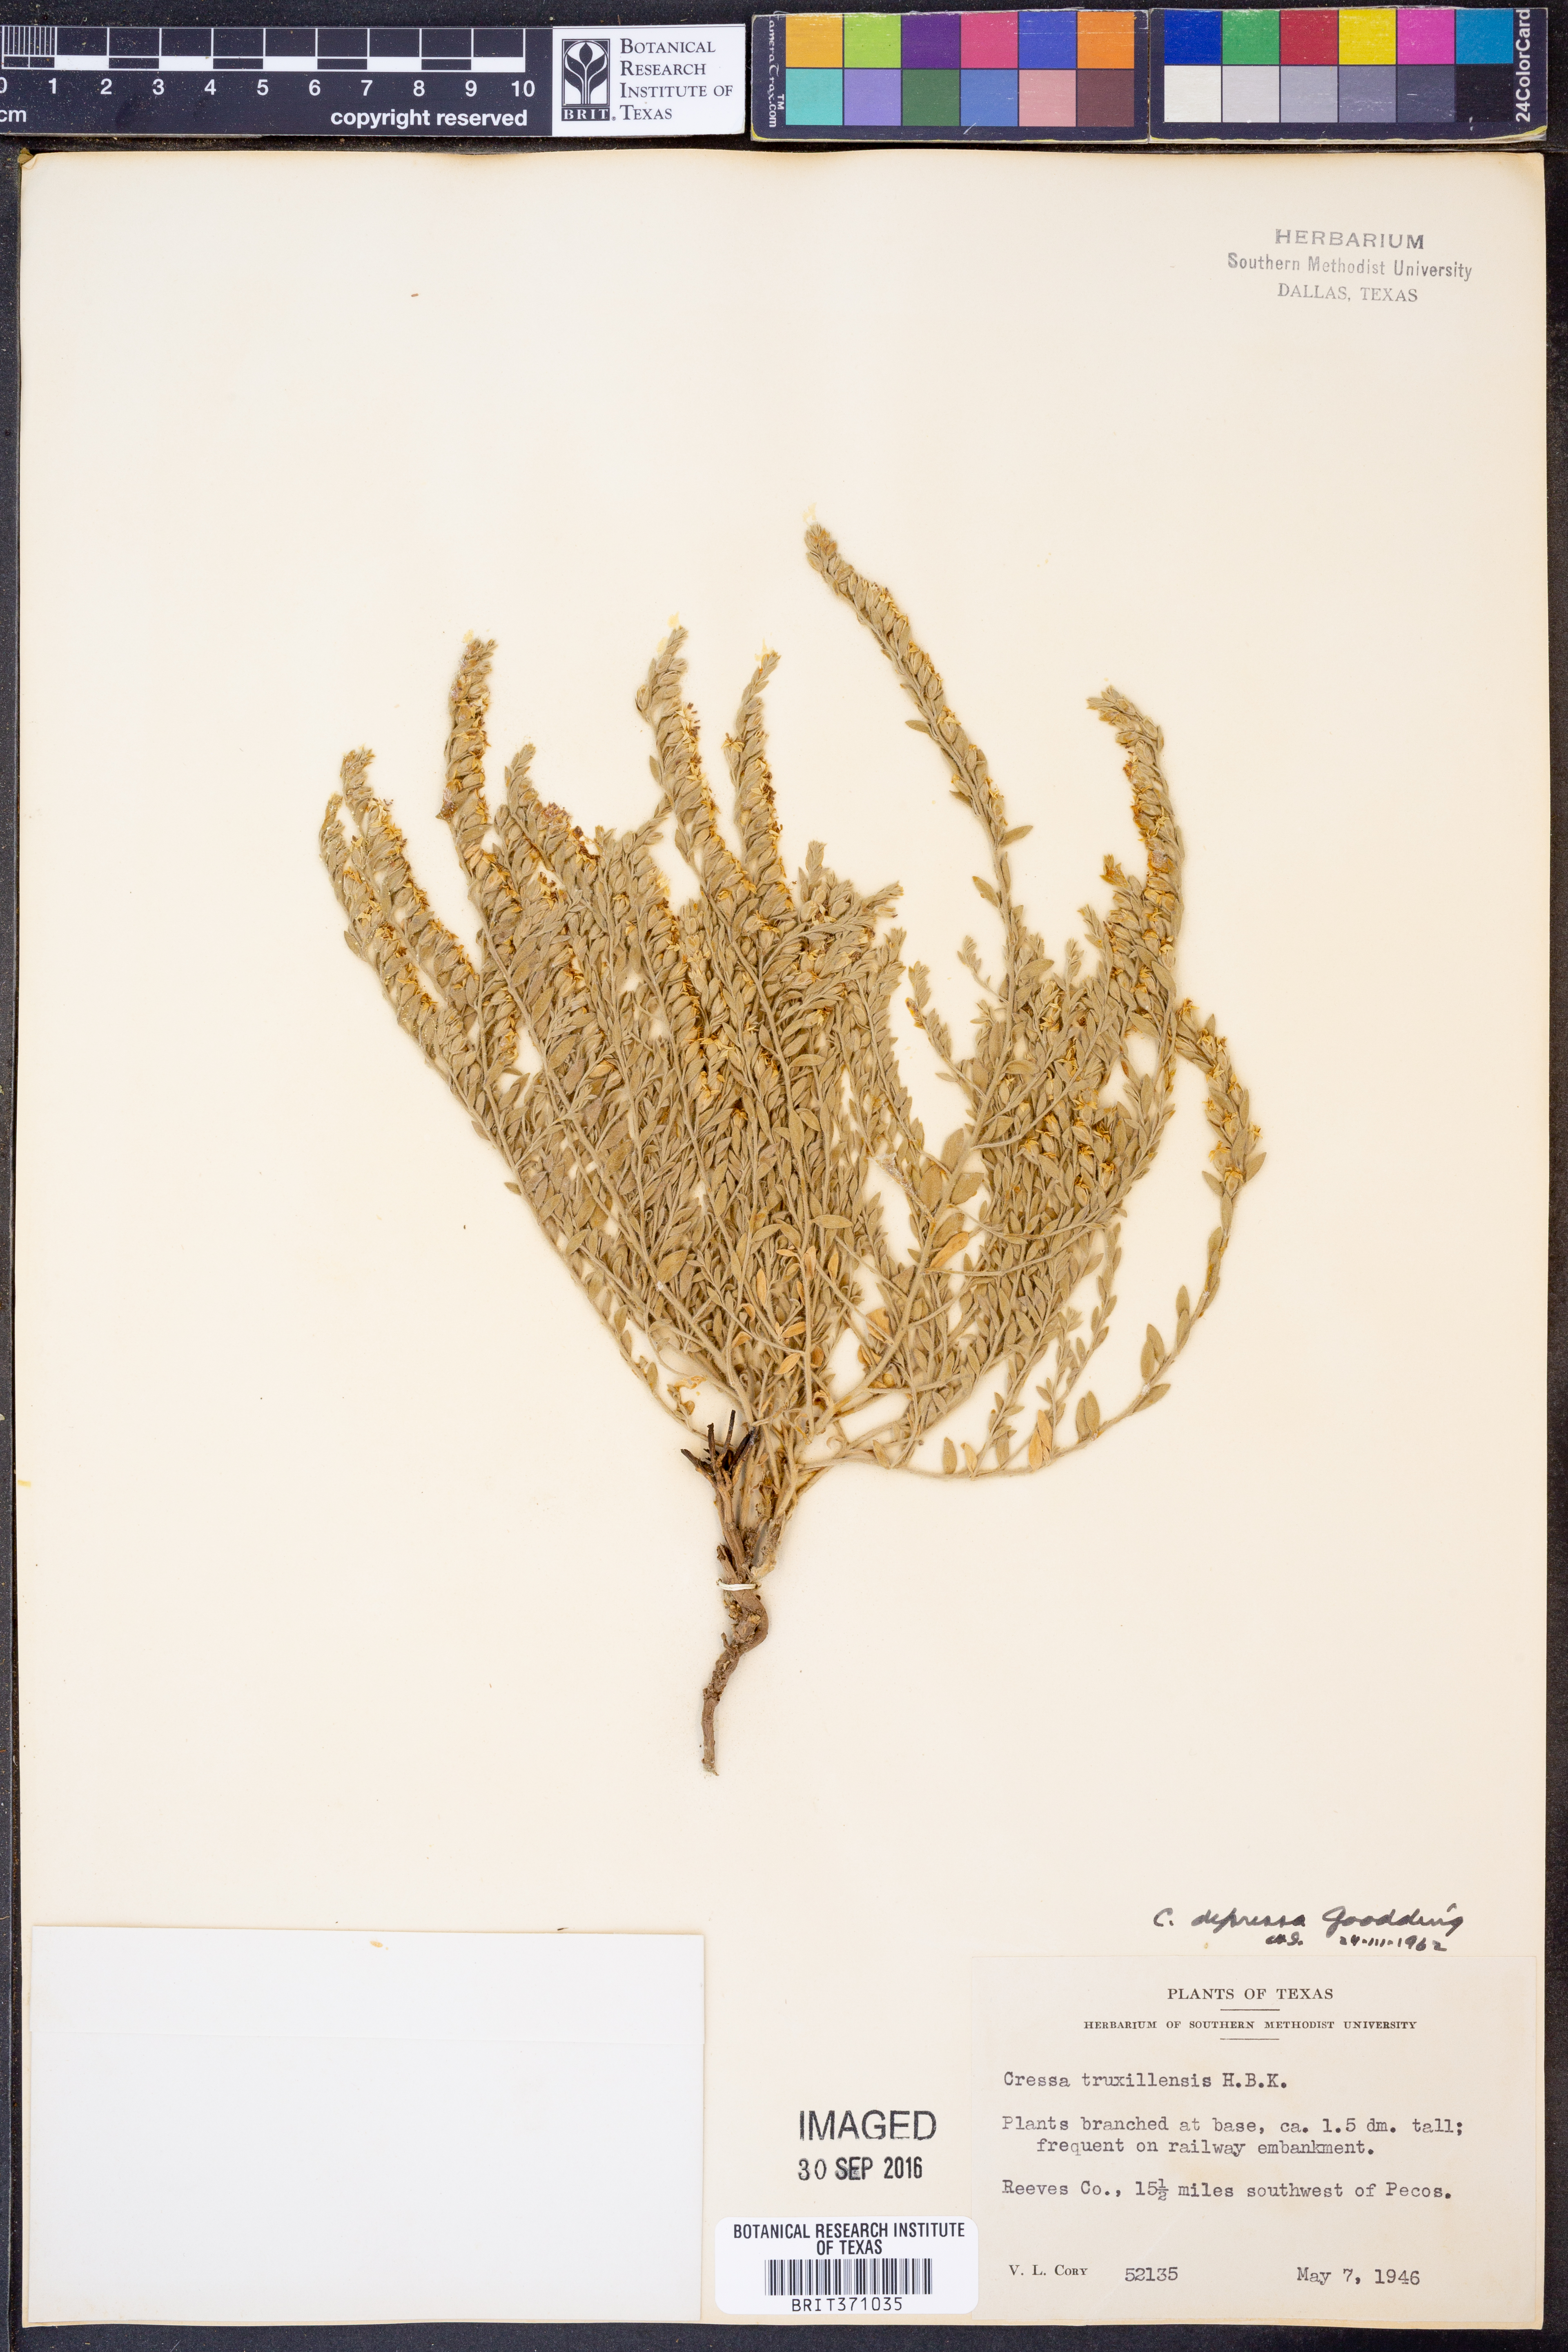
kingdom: Plantae
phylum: Tracheophyta
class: Magnoliopsida
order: Solanales
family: Convolvulaceae
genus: Cressa
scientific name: Cressa truxillensis
